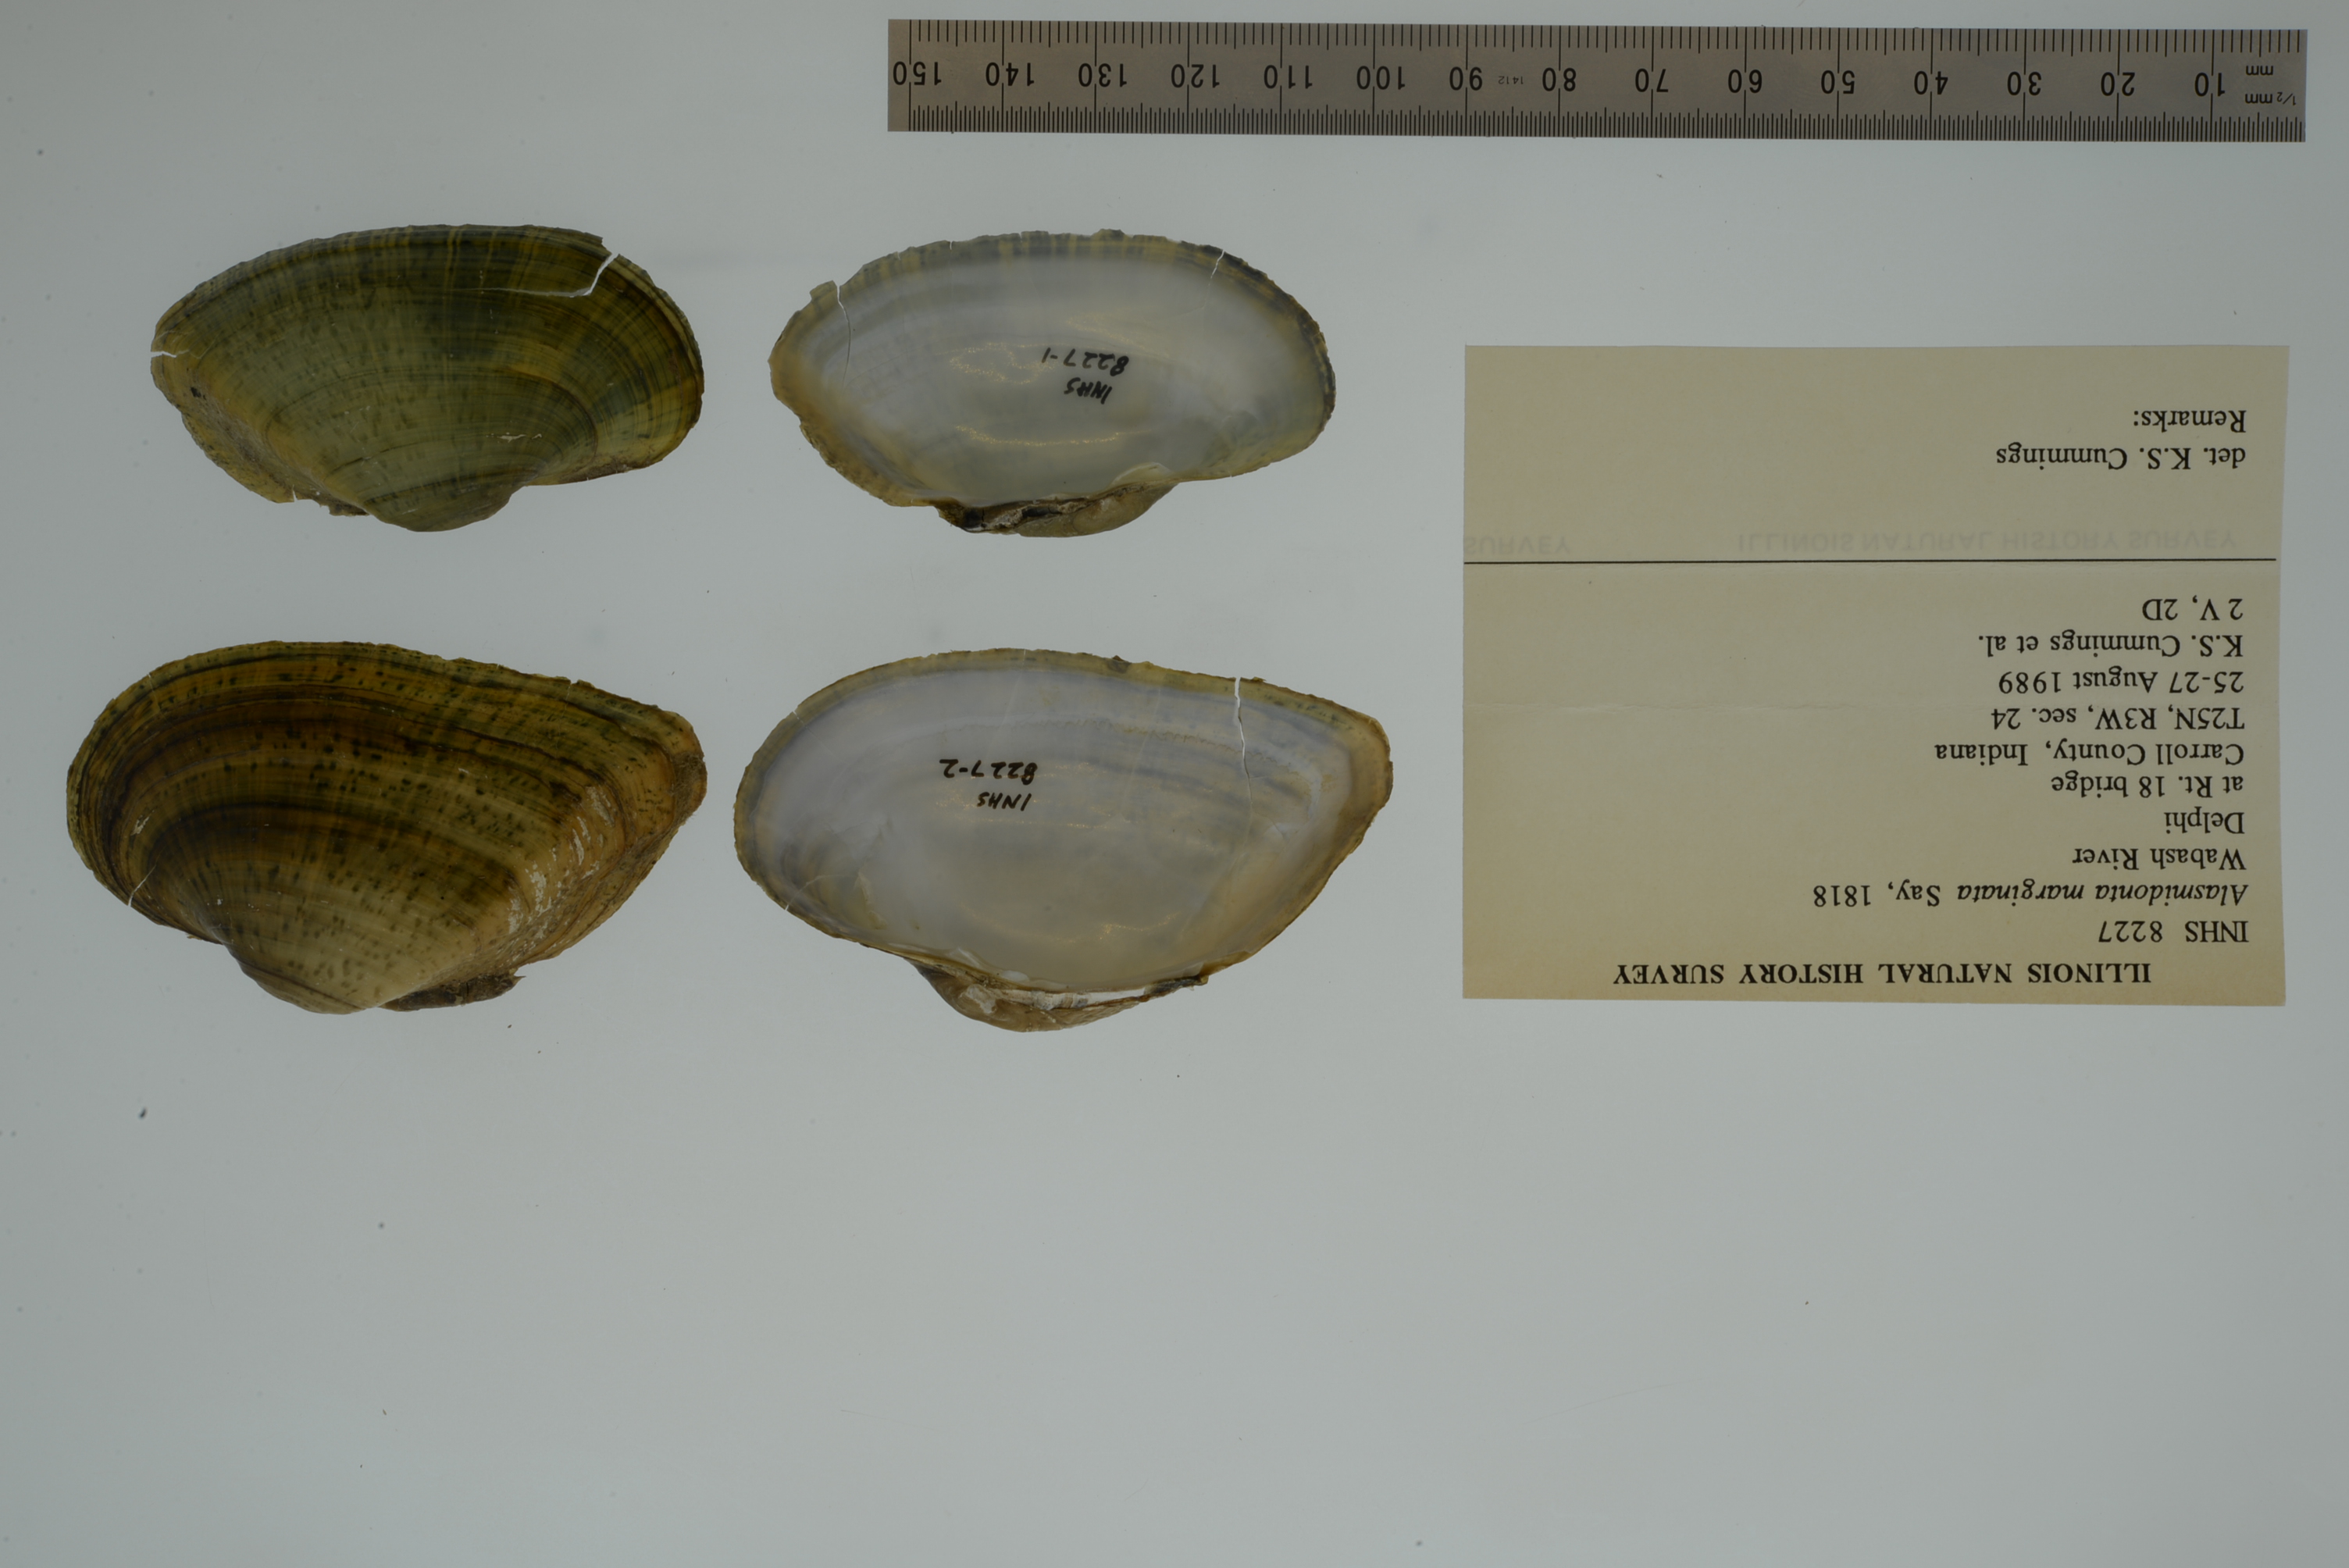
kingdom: Animalia
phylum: Mollusca
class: Bivalvia
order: Unionida
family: Unionidae
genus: Alasmidonta
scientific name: Alasmidonta marginata
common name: Elktoe
